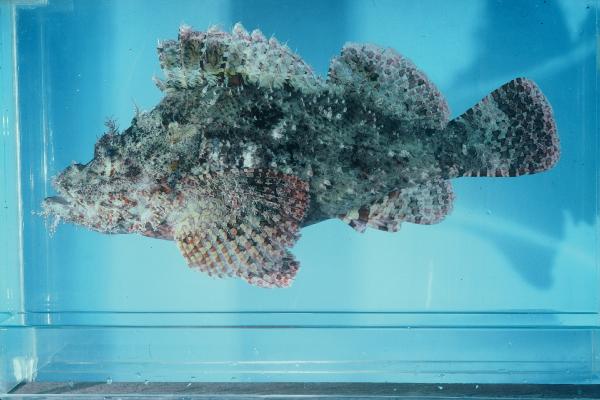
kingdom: Animalia
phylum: Chordata
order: Scorpaeniformes
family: Scorpaenidae
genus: Scorpaenopsis
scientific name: Scorpaenopsis oxycephala
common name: Smallscale scorpionfish
